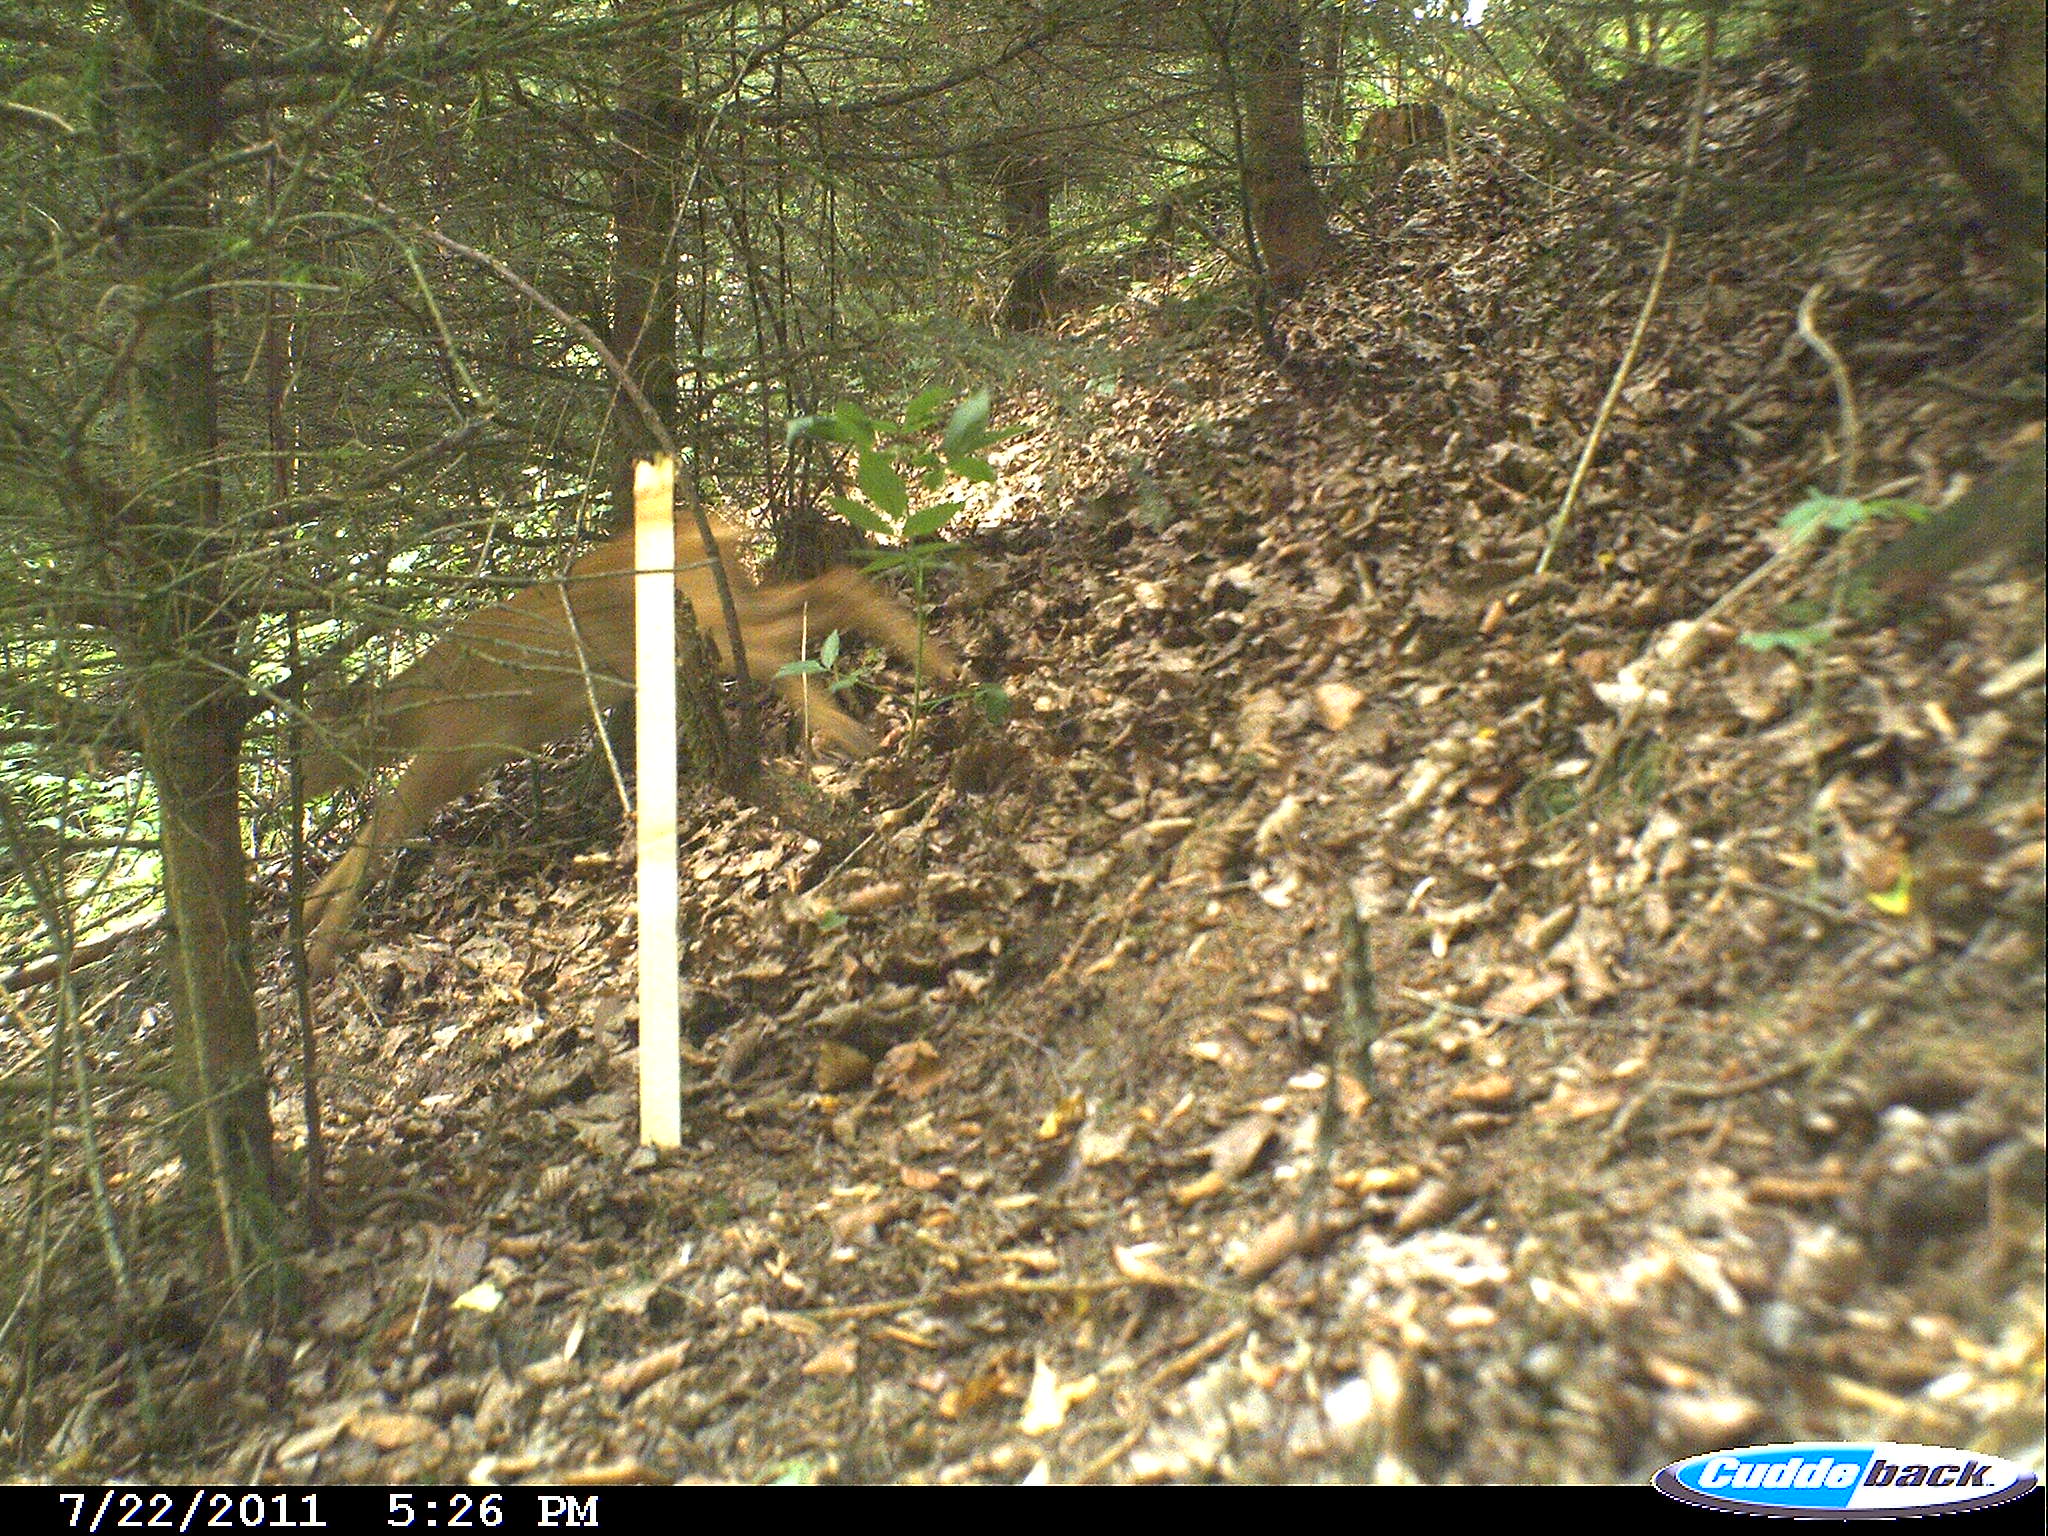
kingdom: Animalia
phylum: Chordata
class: Mammalia
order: Artiodactyla
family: Cervidae
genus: Capreolus
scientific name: Capreolus capreolus
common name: Western roe deer
